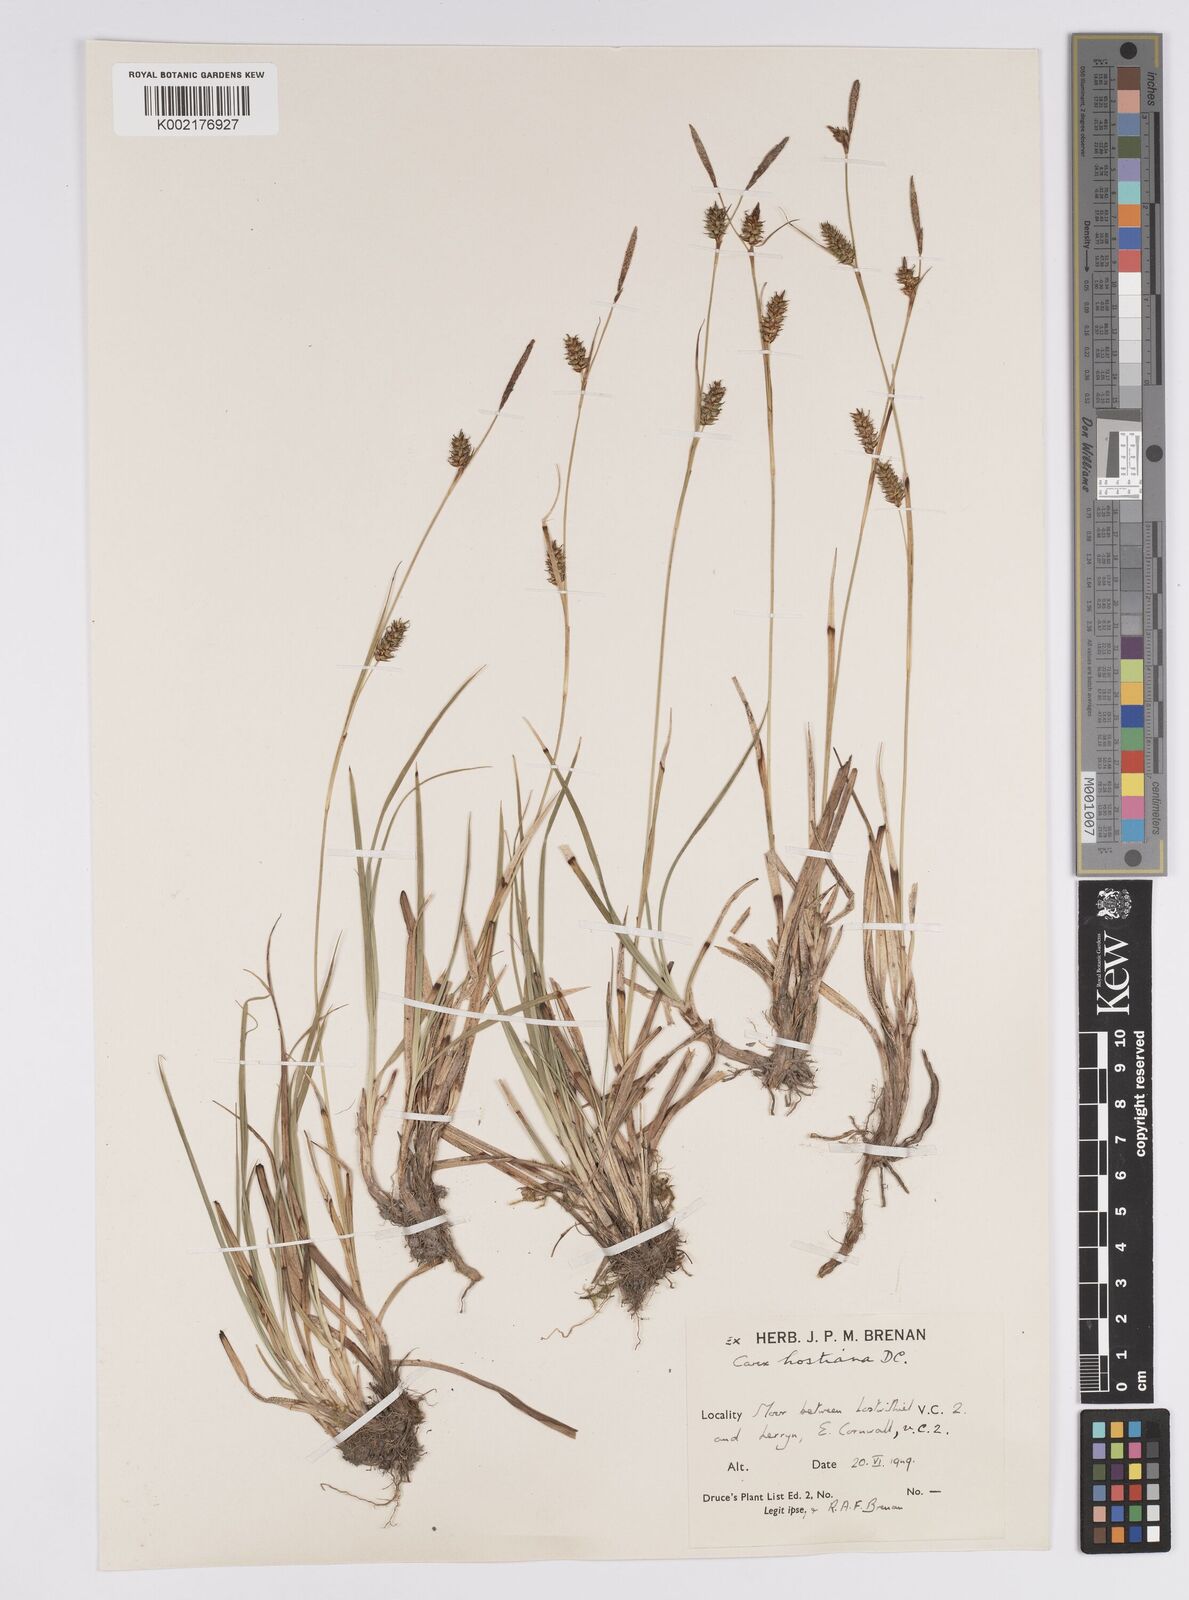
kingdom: Plantae
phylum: Tracheophyta
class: Liliopsida
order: Poales
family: Cyperaceae
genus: Carex
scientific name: Carex hostiana
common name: Tawny sedge
